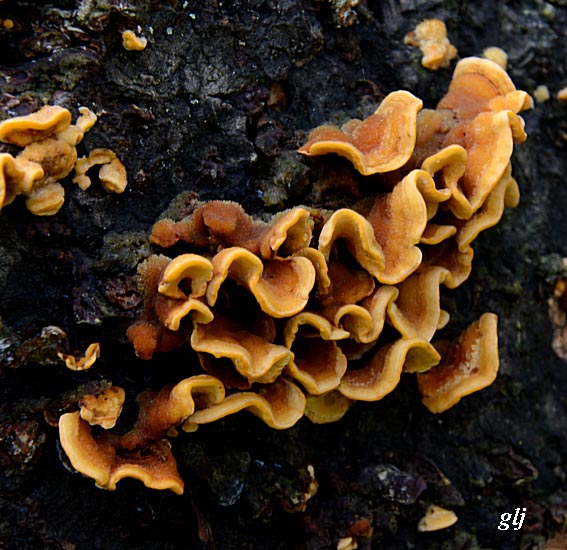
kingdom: Fungi
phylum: Basidiomycota
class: Agaricomycetes
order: Russulales
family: Stereaceae
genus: Stereum
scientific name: Stereum hirsutum
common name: håret lædersvamp
